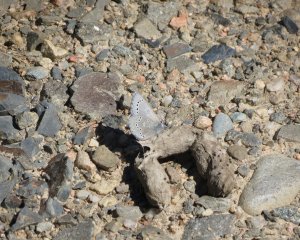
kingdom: Animalia
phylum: Arthropoda
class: Insecta
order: Lepidoptera
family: Lycaenidae
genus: Glaucopsyche
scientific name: Glaucopsyche lygdamus
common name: Silvery Blue
